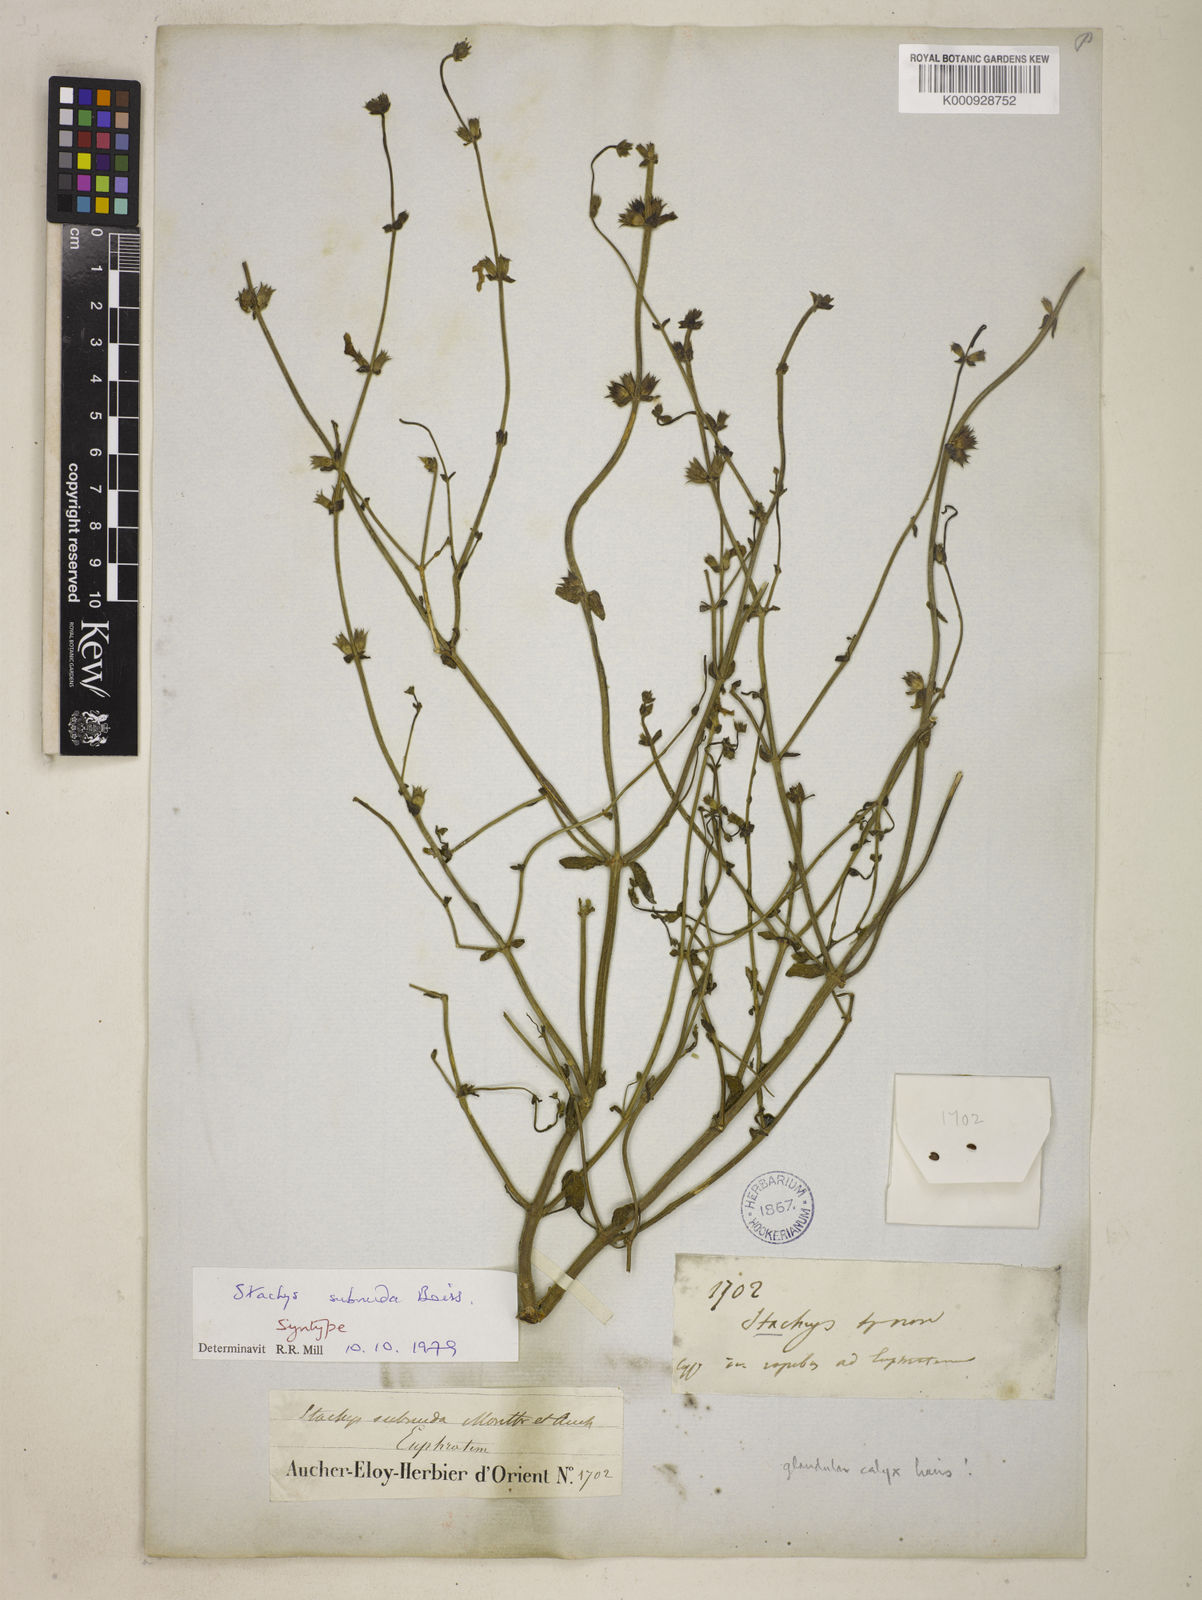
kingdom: Plantae
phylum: Tracheophyta
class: Magnoliopsida
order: Lamiales
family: Lamiaceae
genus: Stachys
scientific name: Stachys subnuda
